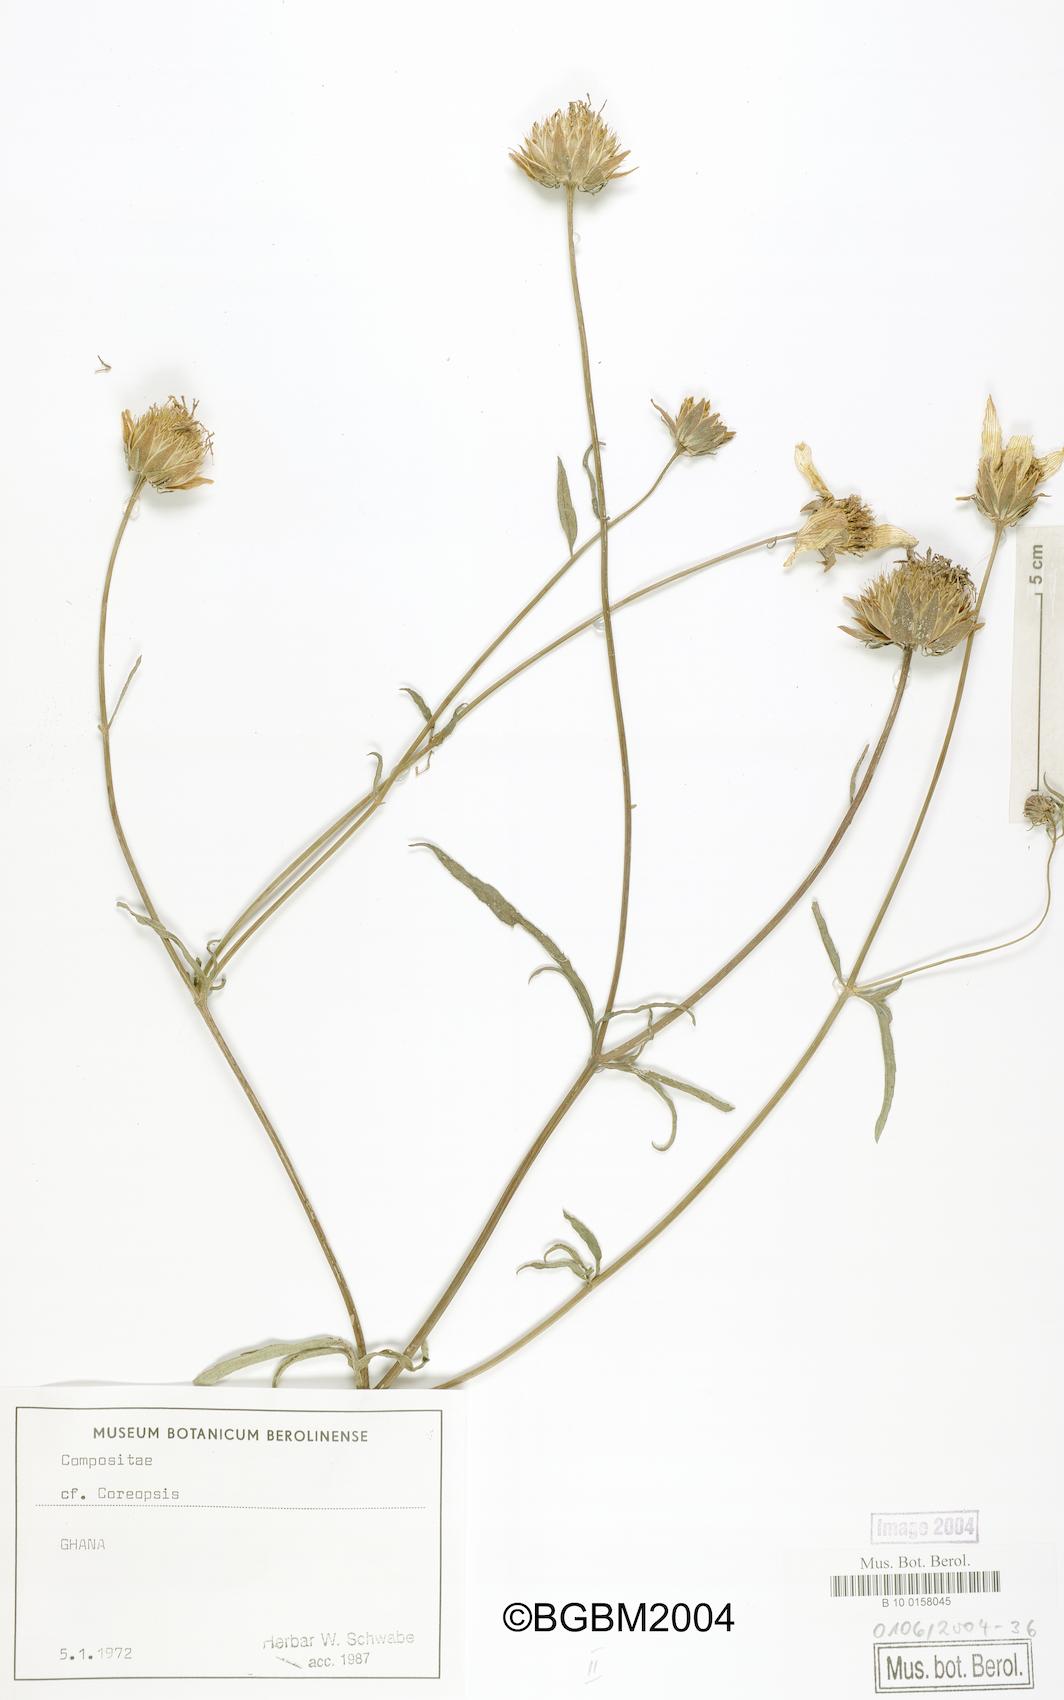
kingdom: Plantae
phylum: Tracheophyta
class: Magnoliopsida
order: Asterales
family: Asteraceae
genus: Coreopsis
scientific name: Coreopsis
